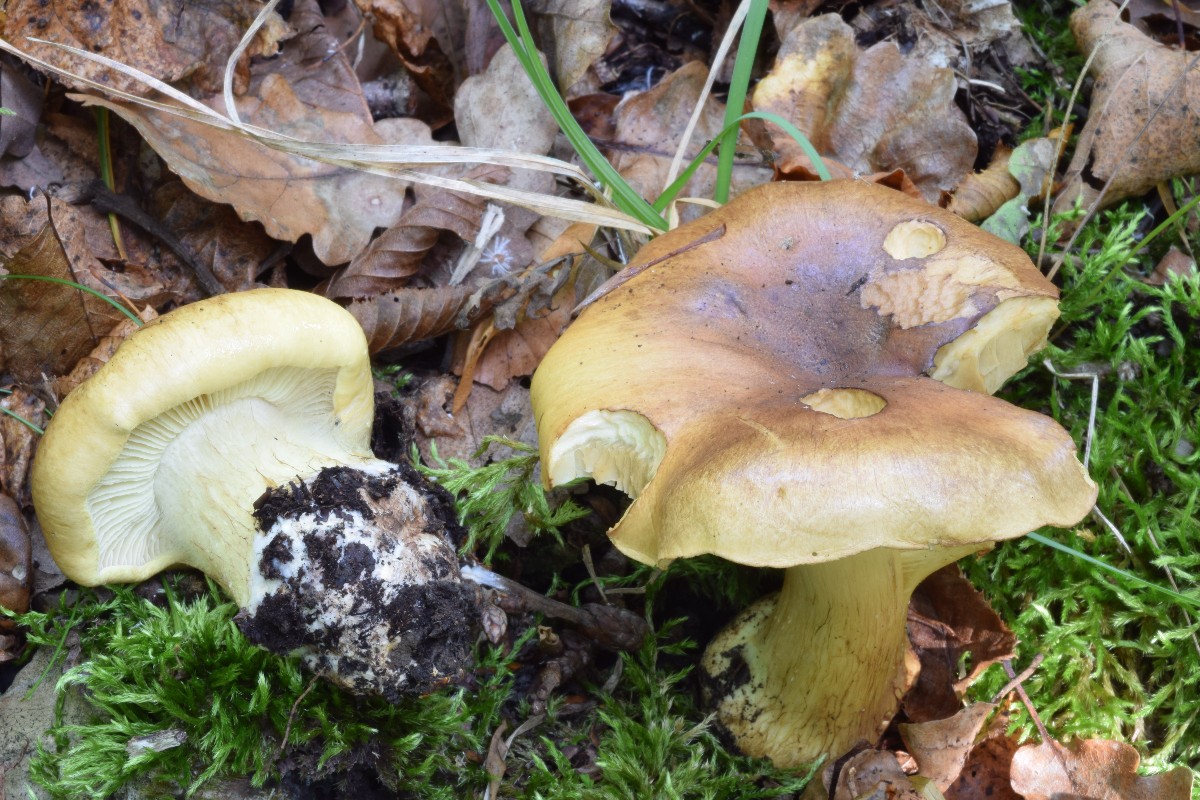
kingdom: Fungi
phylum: Basidiomycota
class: Agaricomycetes
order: Agaricales
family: Cortinariaceae
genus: Phlegmacium
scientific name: Phlegmacium aurilicis
